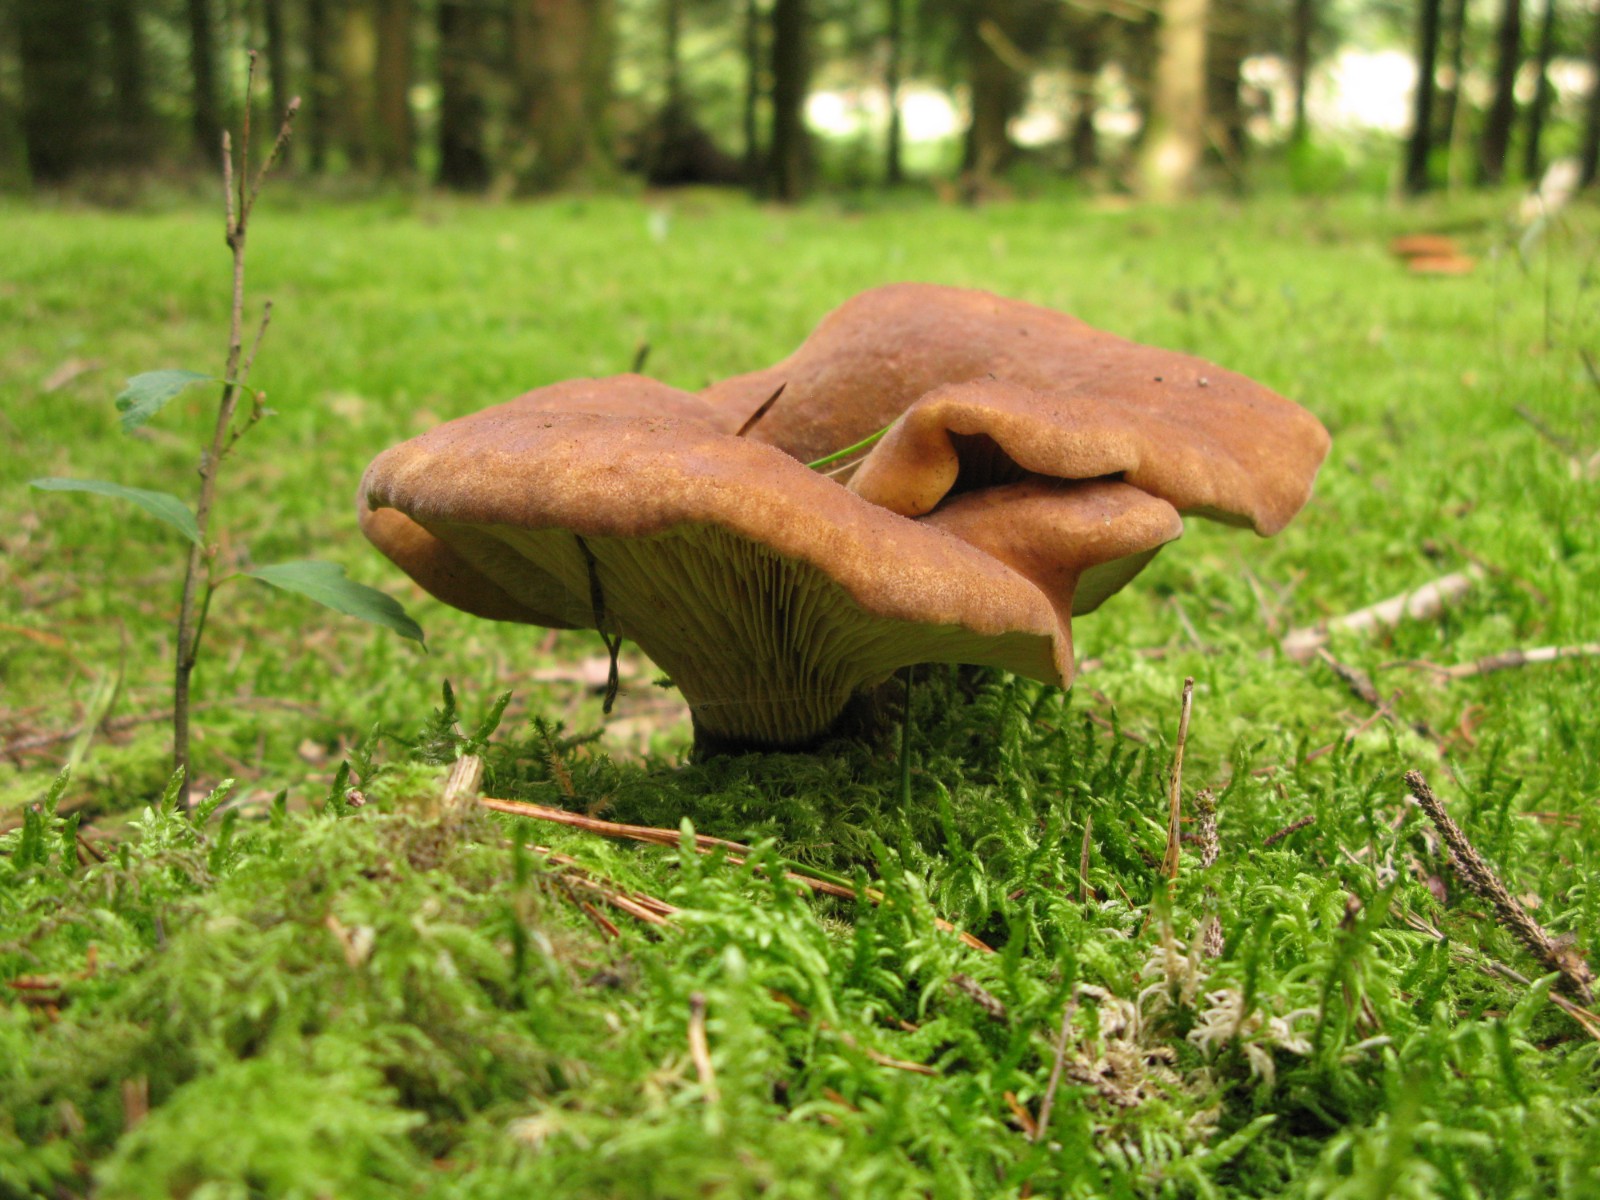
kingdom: Fungi
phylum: Basidiomycota
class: Agaricomycetes
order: Boletales
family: Tapinellaceae
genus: Tapinella
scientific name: Tapinella atrotomentosa
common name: sortfiltet viftesvamp
